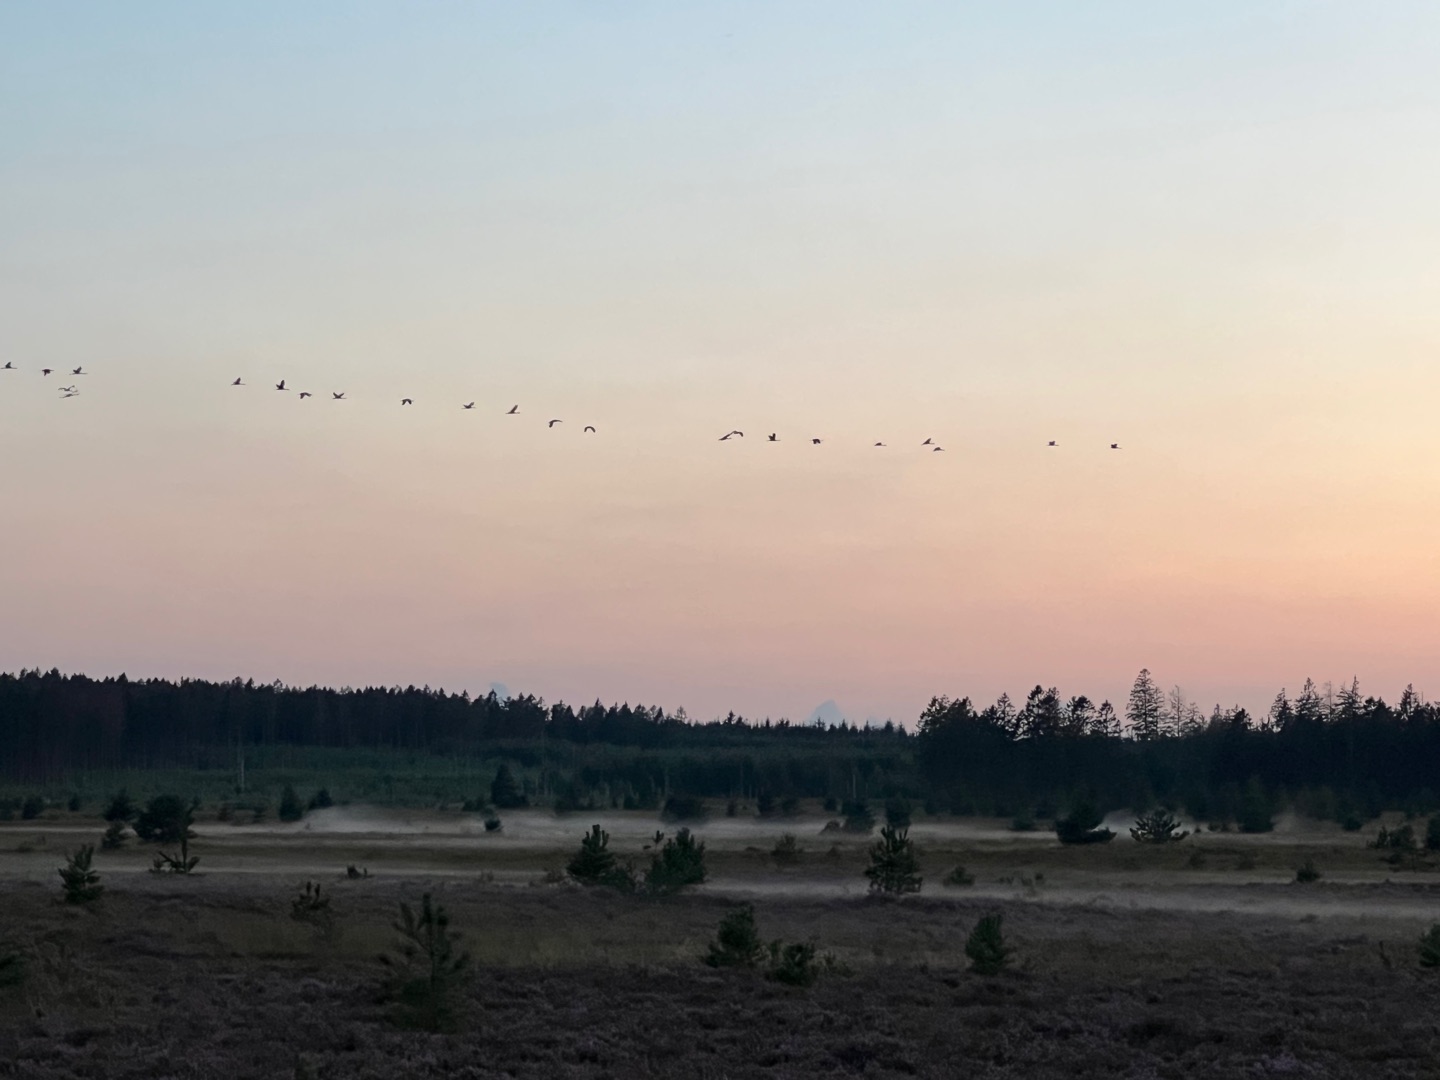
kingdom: Animalia
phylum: Chordata
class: Aves
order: Gruiformes
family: Gruidae
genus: Grus
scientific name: Grus grus
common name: Trane
